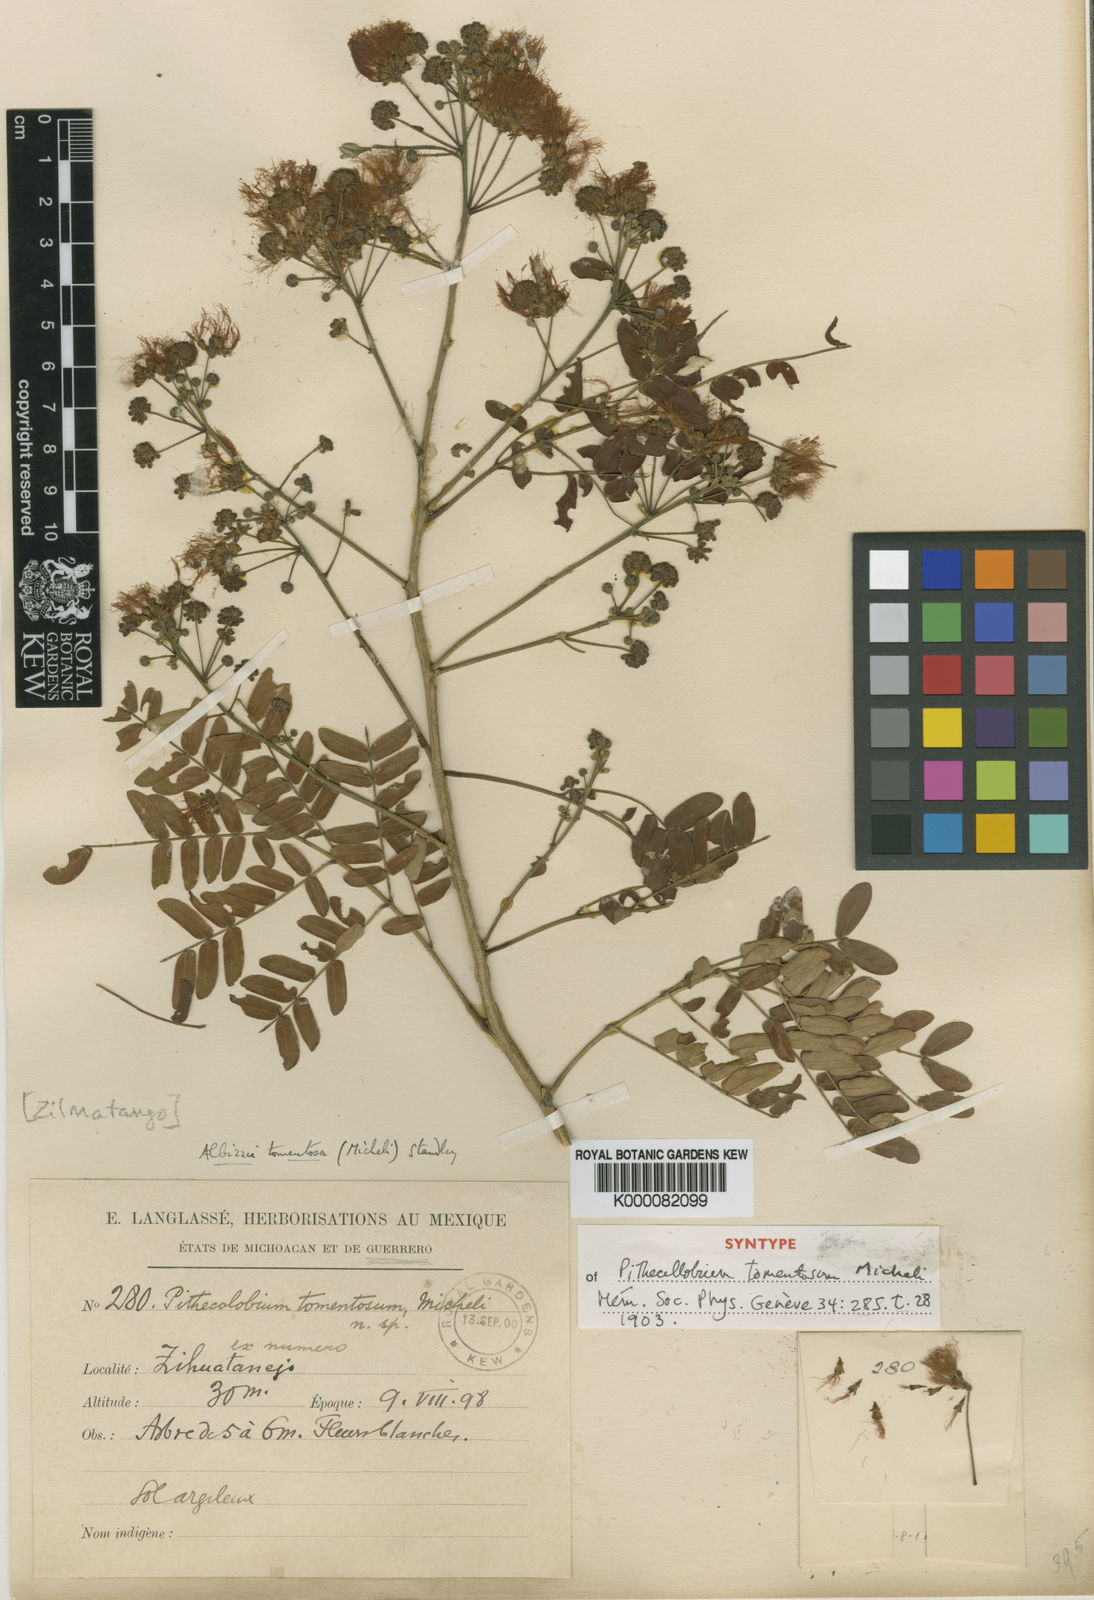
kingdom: Plantae
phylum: Tracheophyta
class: Magnoliopsida
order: Fabales
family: Fabaceae
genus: Albizia
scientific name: Albizia tomentosa
